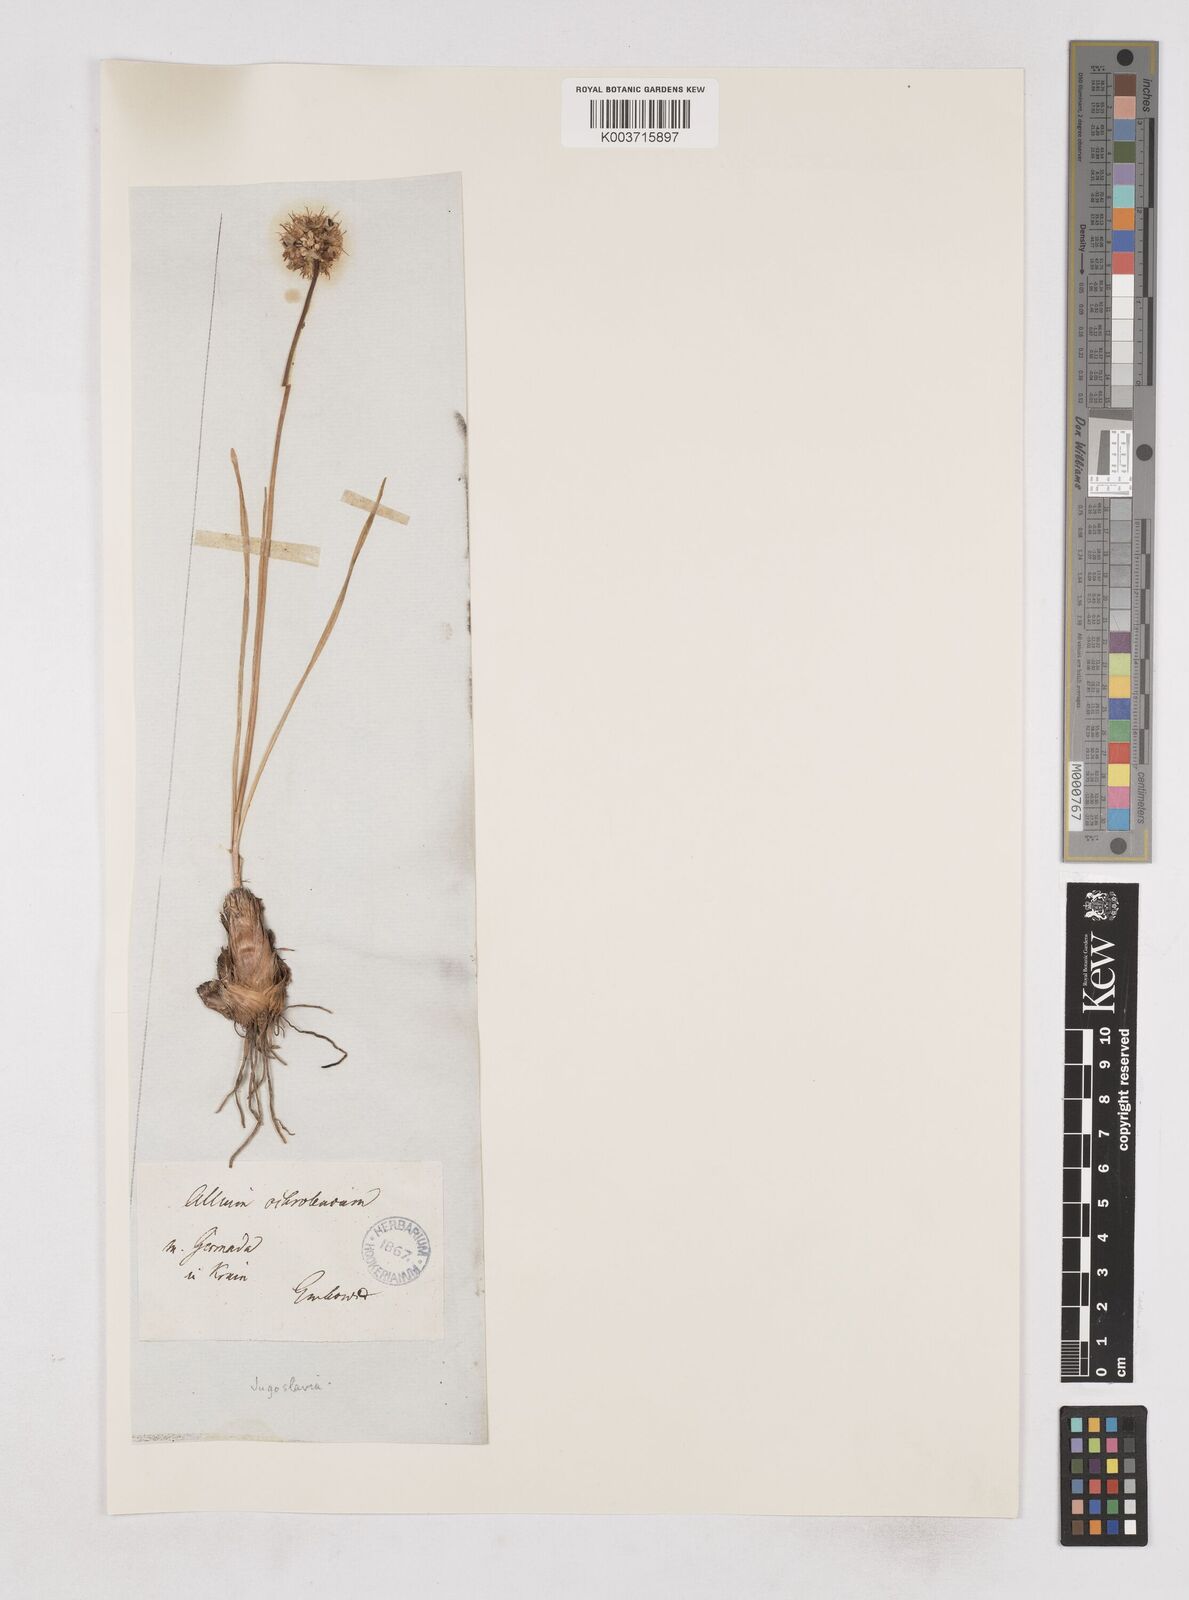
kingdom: Plantae
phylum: Tracheophyta
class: Liliopsida
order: Asparagales
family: Amaryllidaceae
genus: Allium
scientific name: Allium ericetorum
